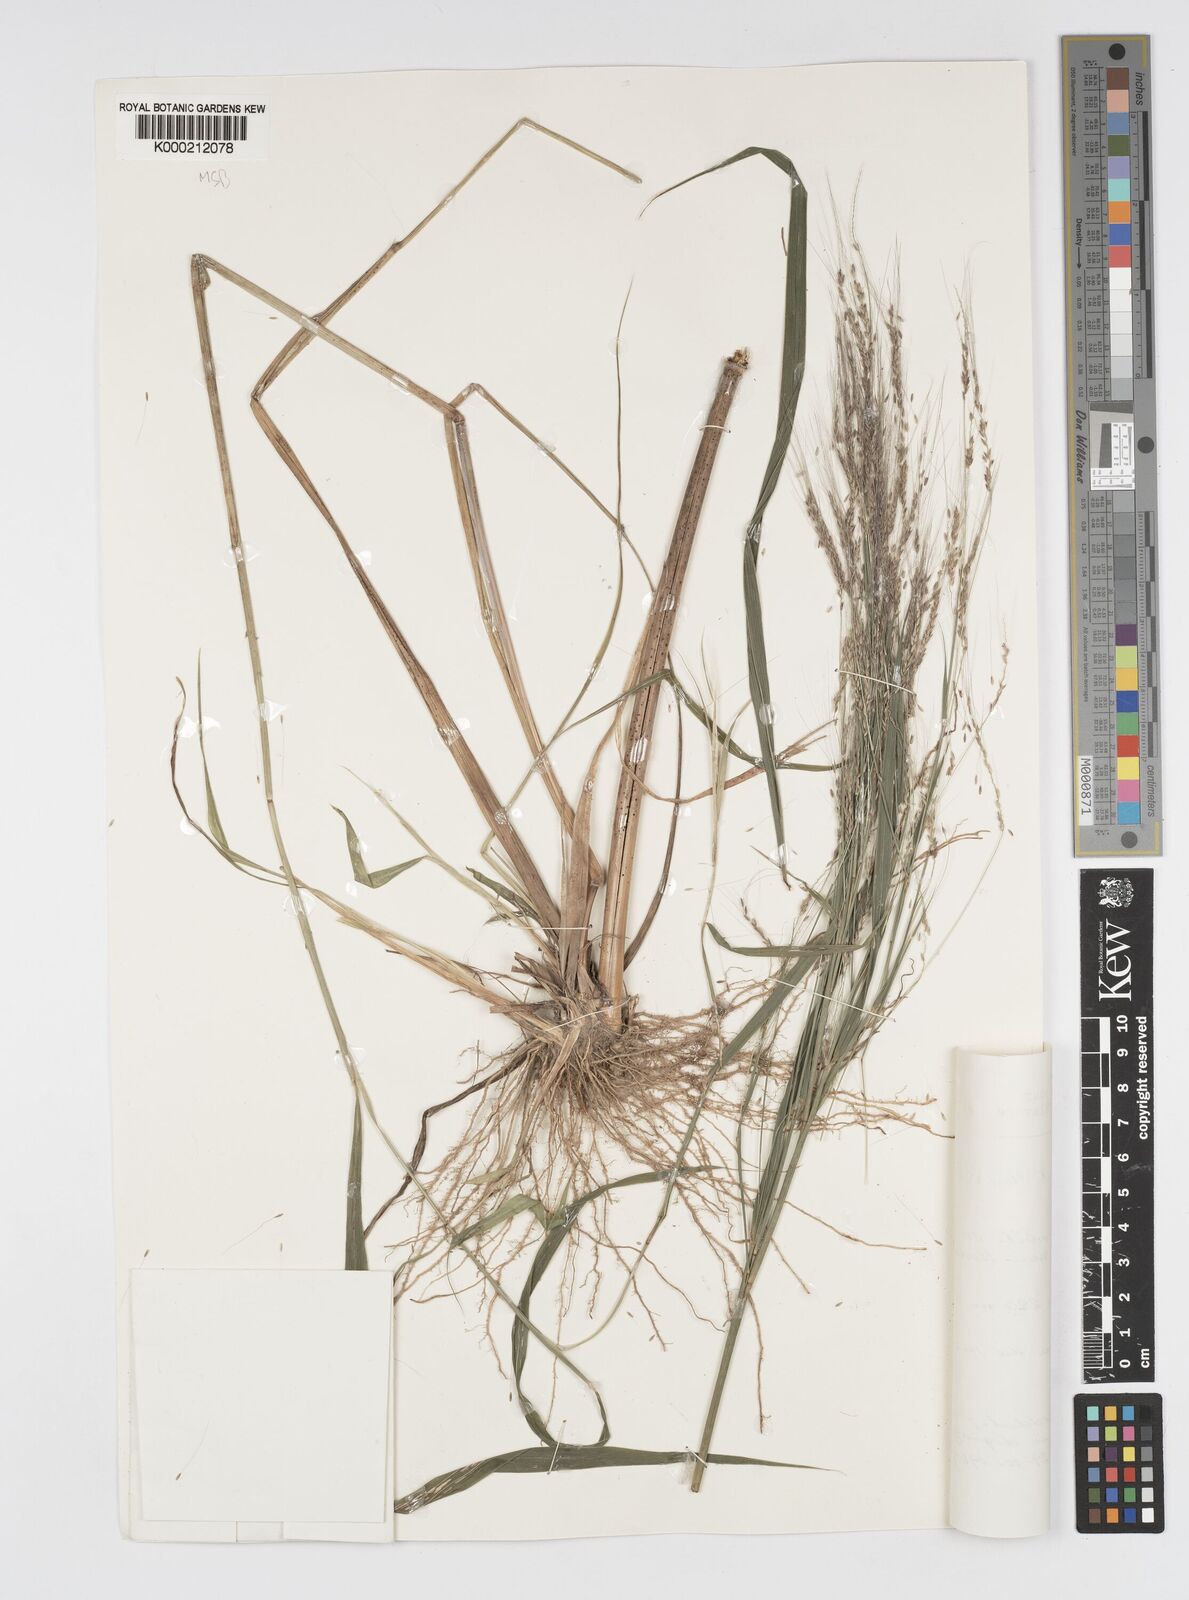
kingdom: Plantae
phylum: Tracheophyta
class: Liliopsida
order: Poales
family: Poaceae
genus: Cenchrus
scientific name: Cenchrus unisetus
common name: Natal grass
